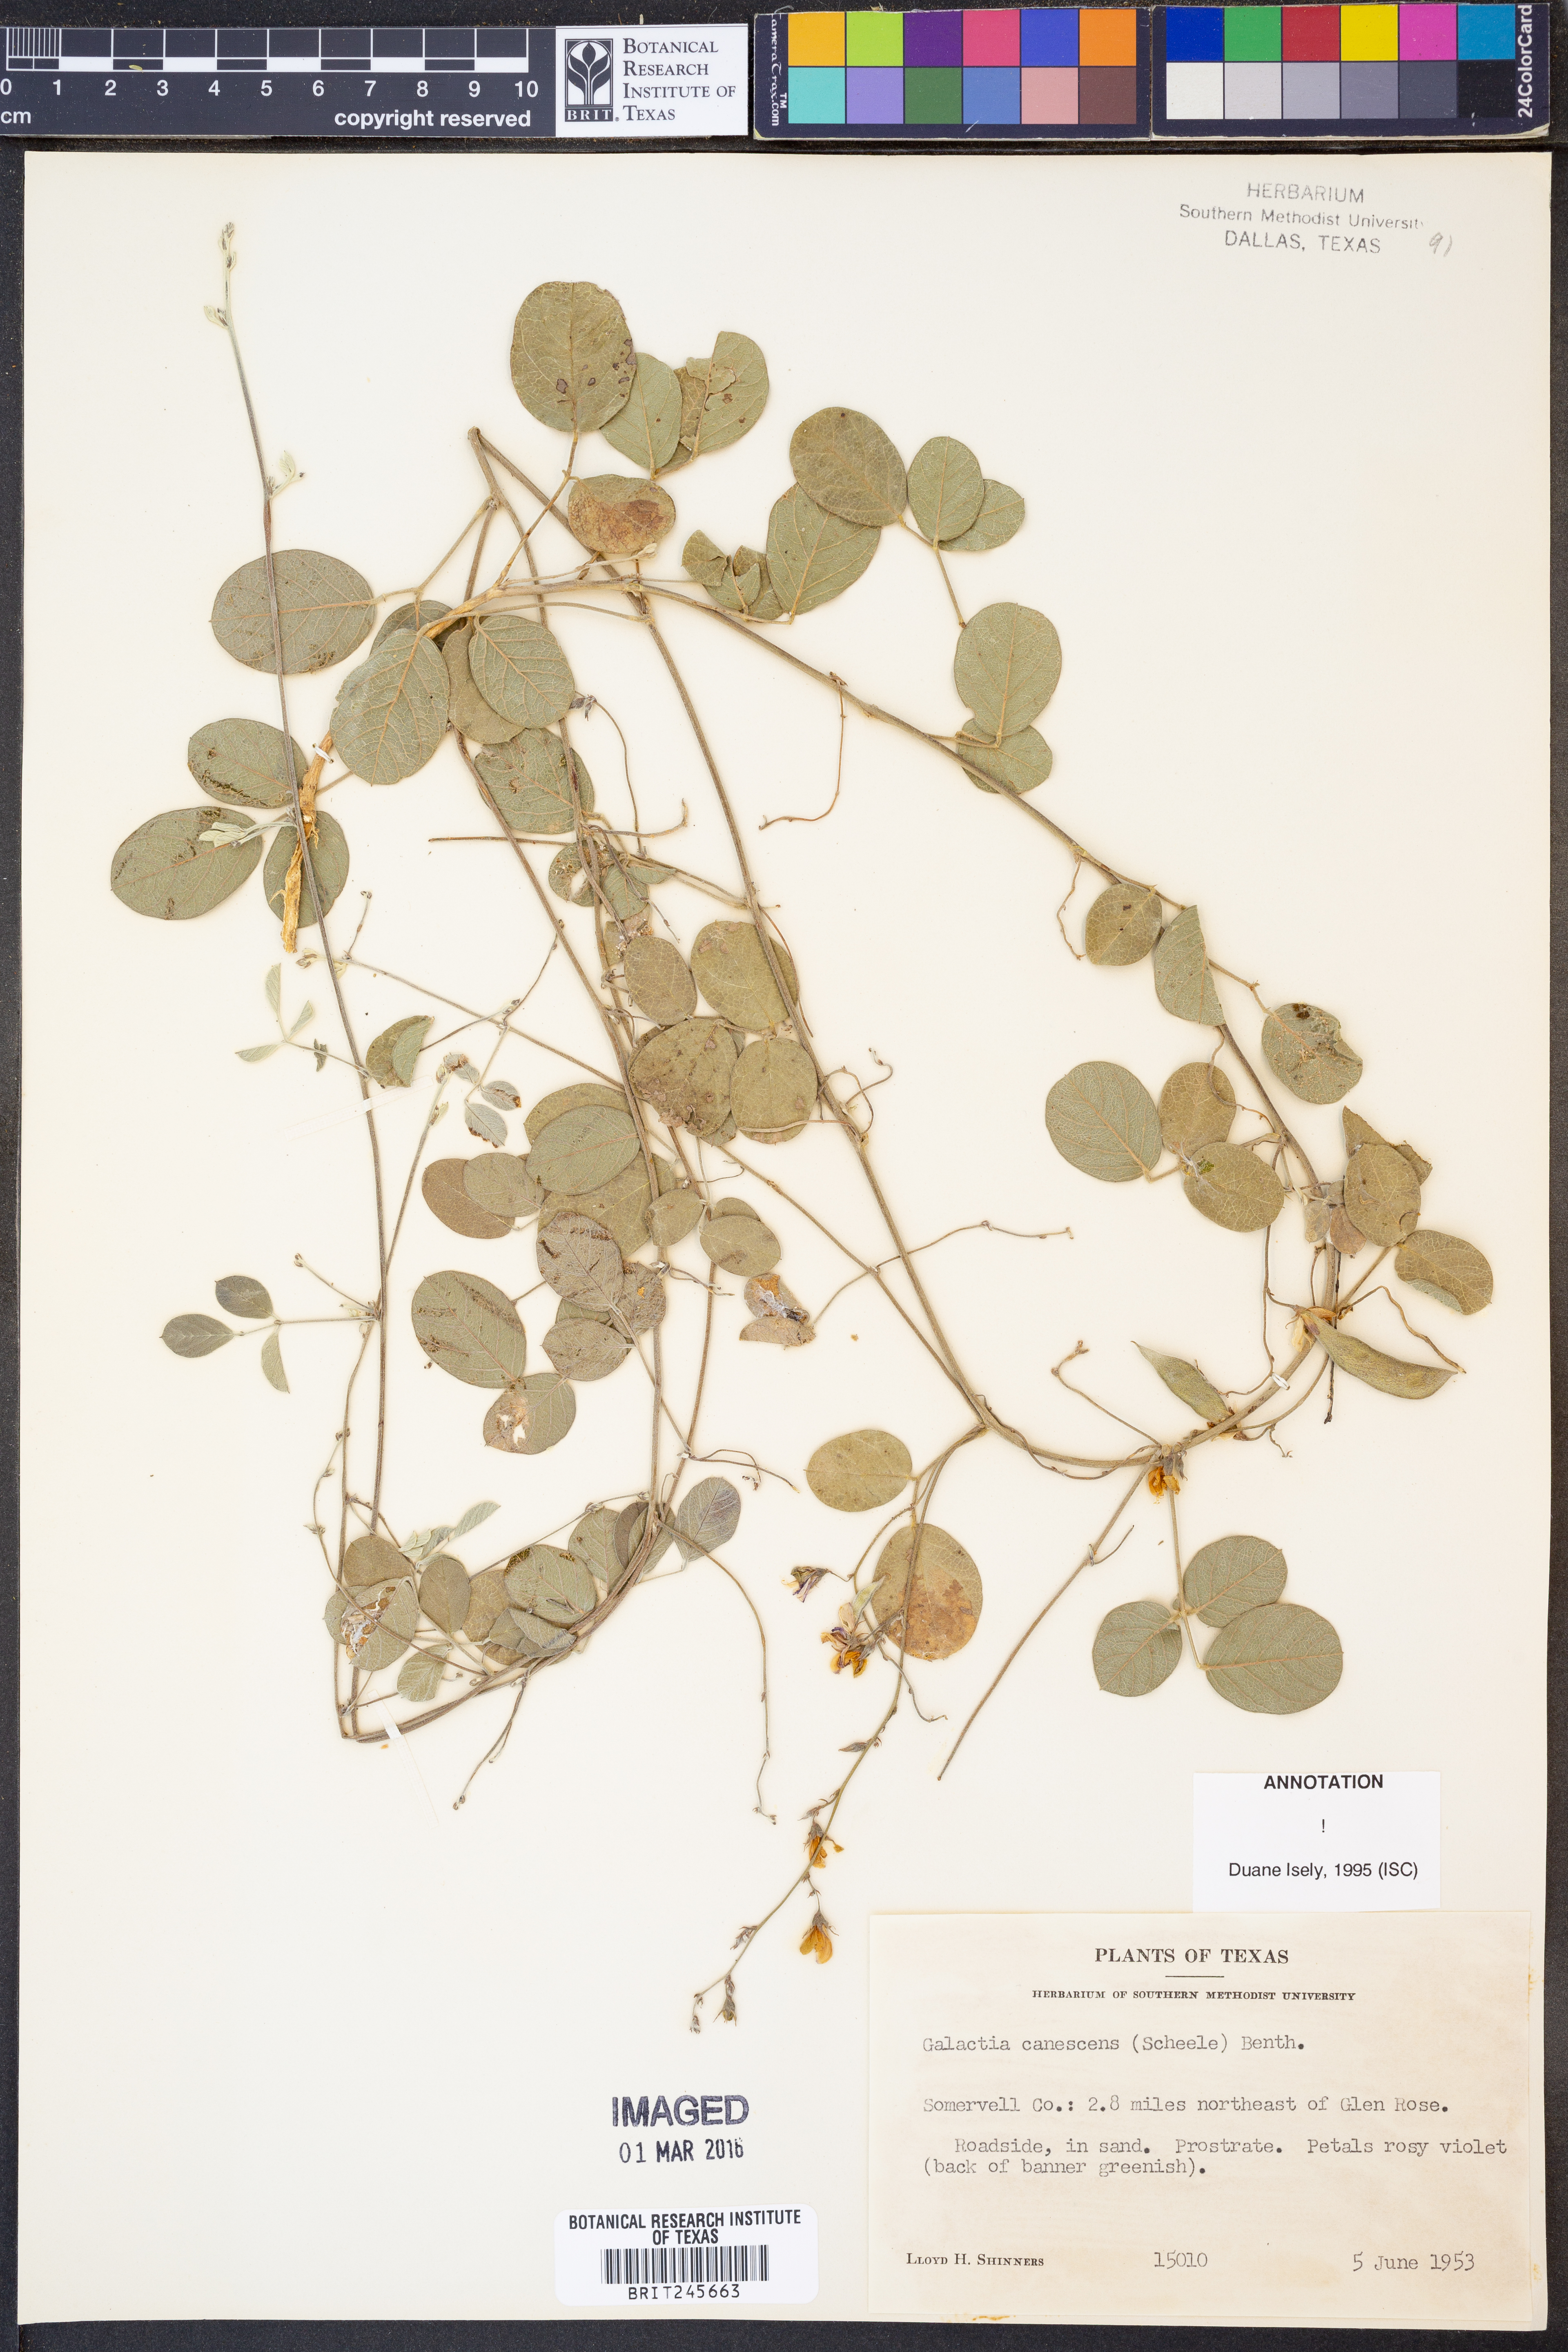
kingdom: Plantae
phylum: Tracheophyta
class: Magnoliopsida
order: Fabales
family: Fabaceae
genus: Galactia
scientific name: Galactia canescens
